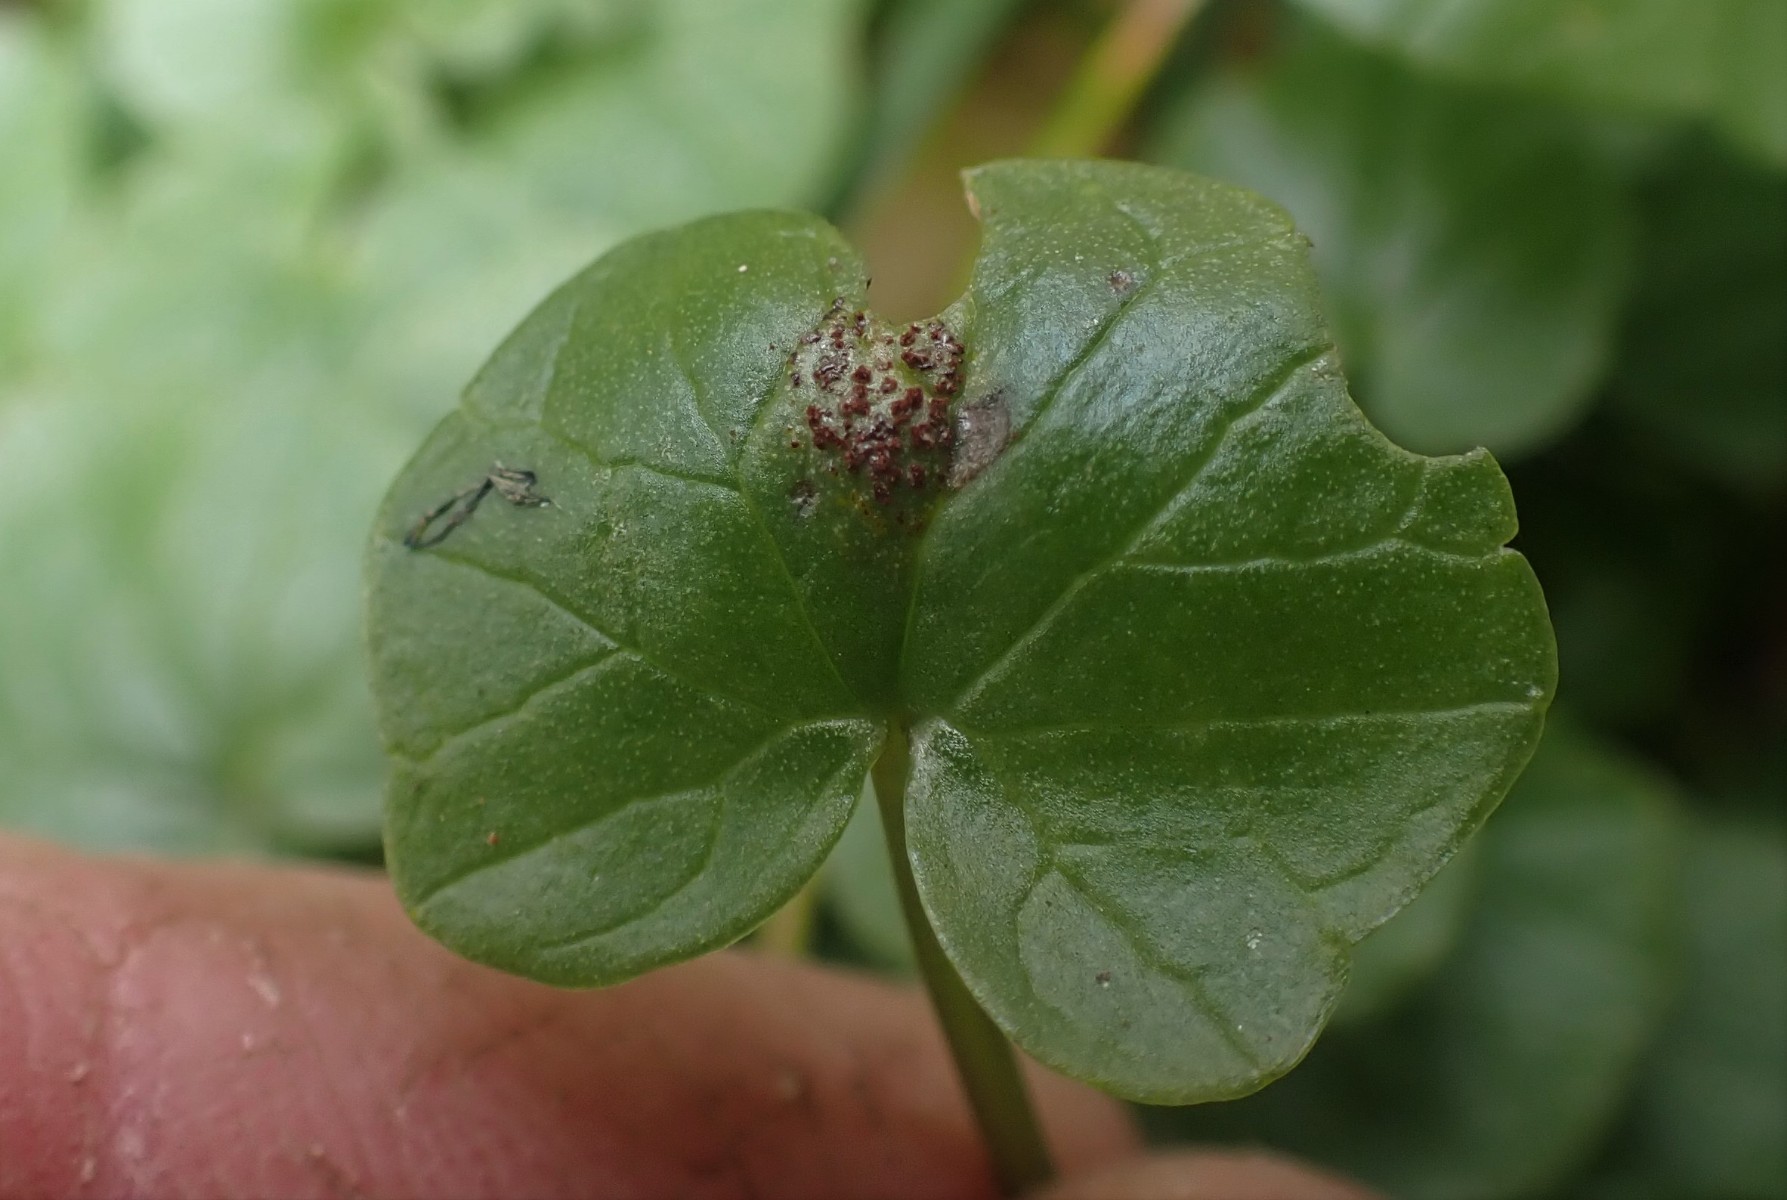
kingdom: Fungi
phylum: Basidiomycota
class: Pucciniomycetes
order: Pucciniales
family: Pucciniaceae
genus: Uromyces
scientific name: Uromyces ficariae
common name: vorterod-encellerust
